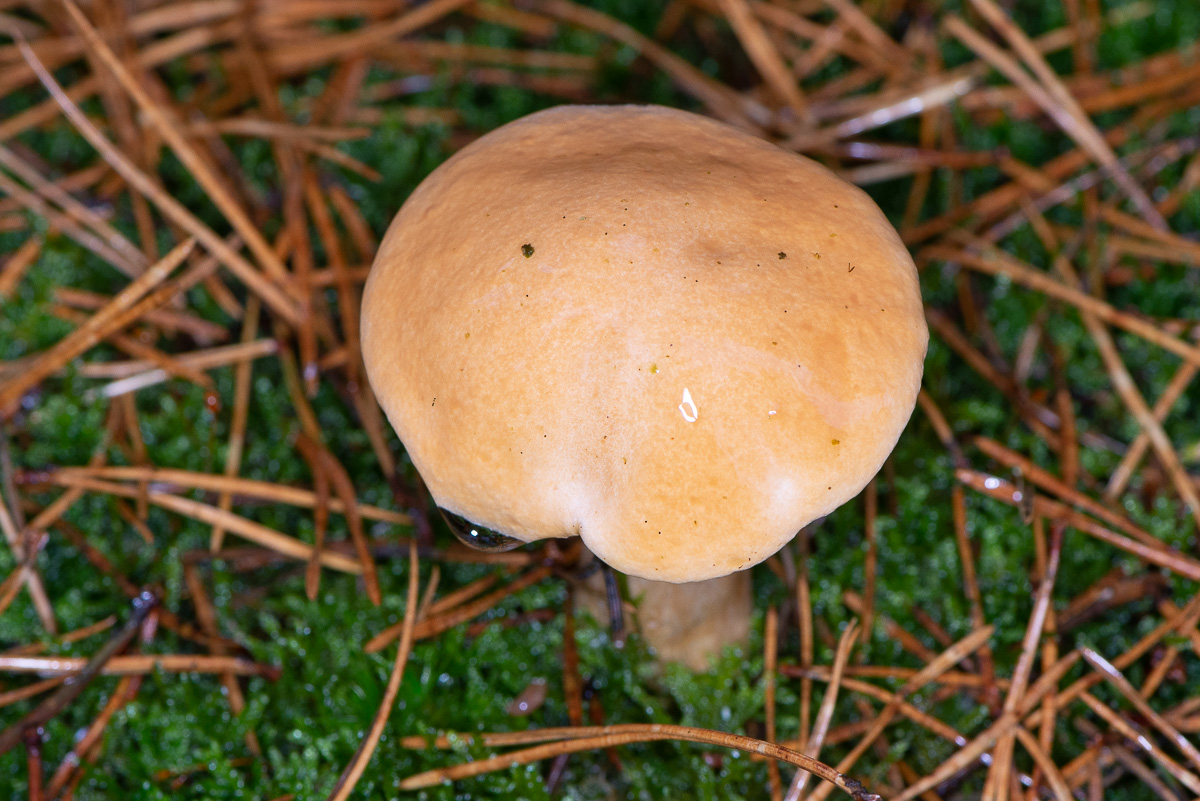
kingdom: Fungi
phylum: Basidiomycota
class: Agaricomycetes
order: Boletales
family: Suillaceae
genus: Suillus
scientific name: Suillus bovinus
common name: grovporet slimrørhat
